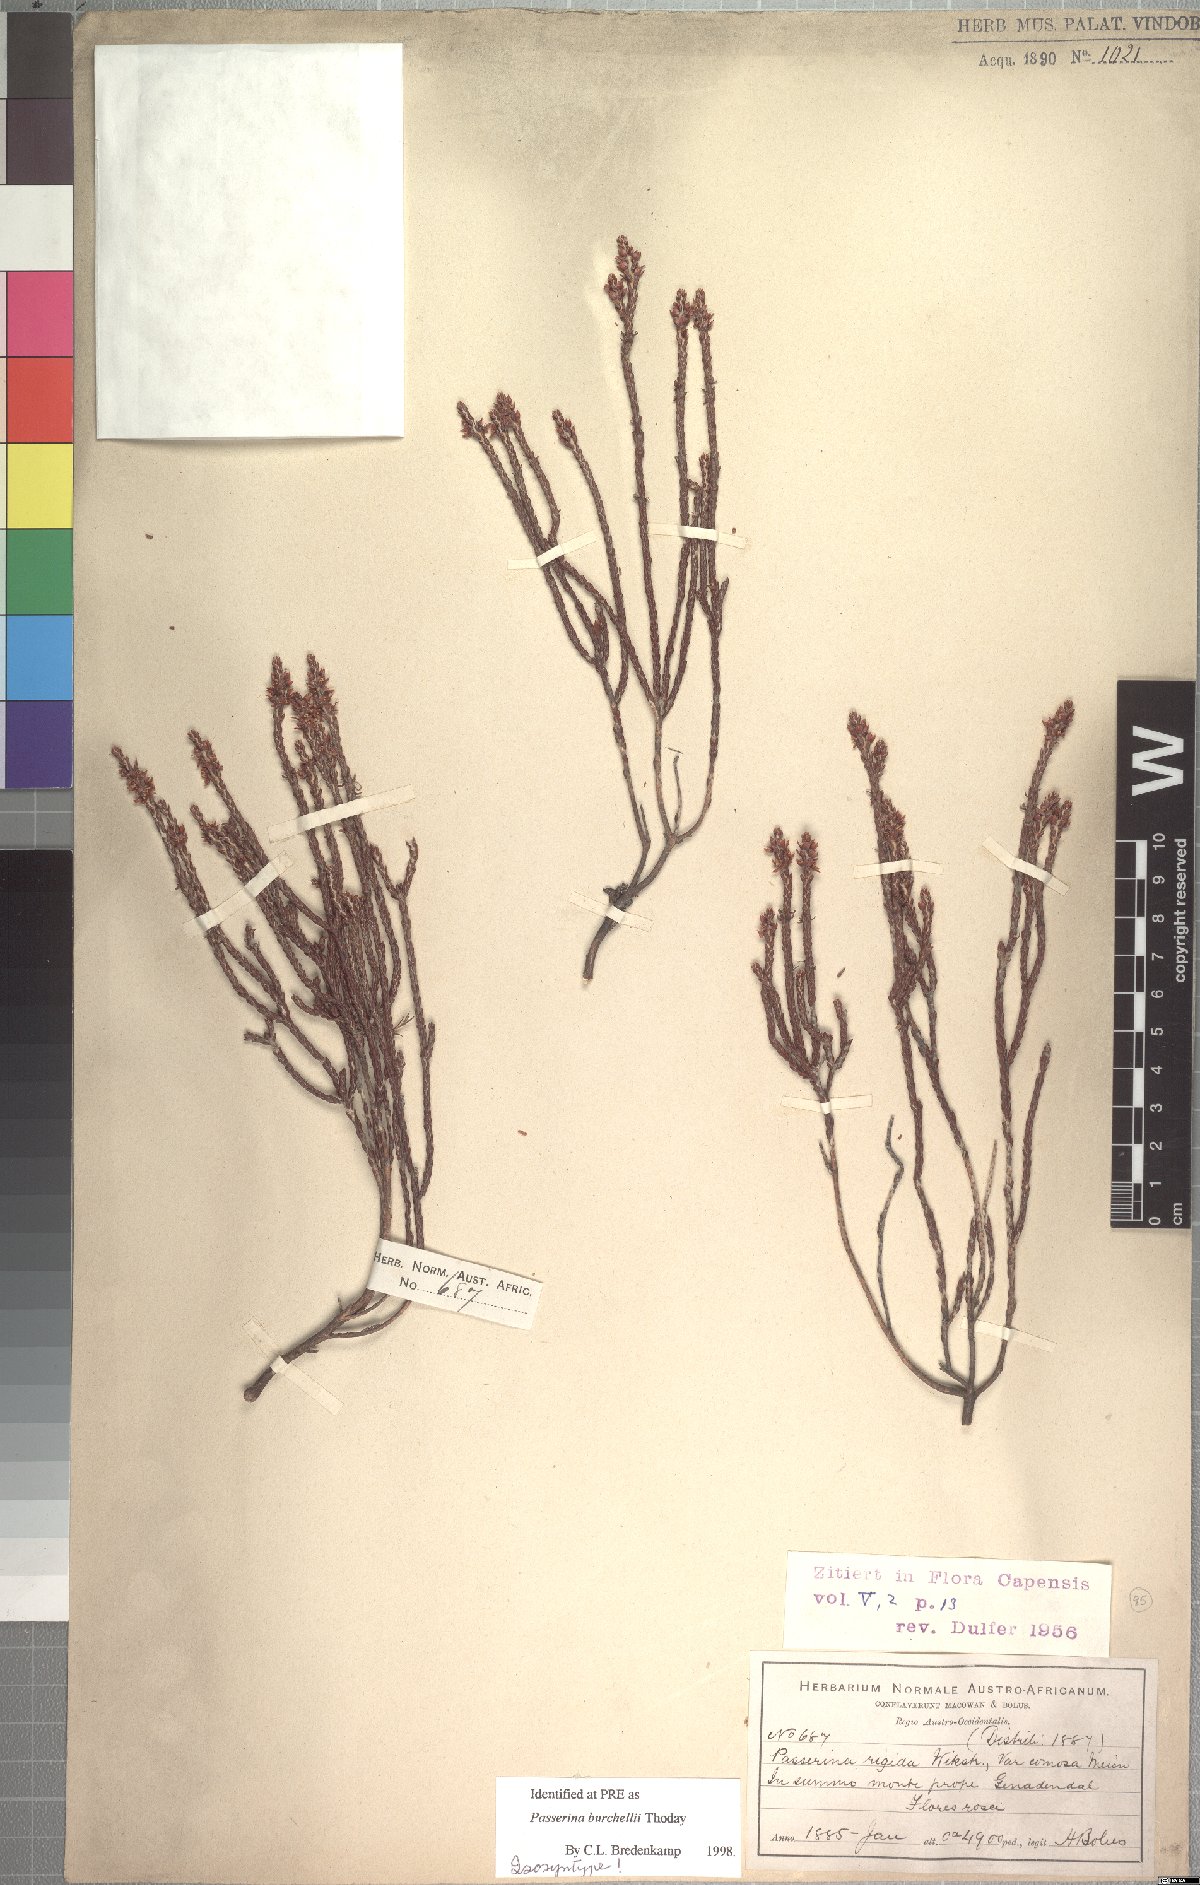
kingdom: Plantae
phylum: Tracheophyta
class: Magnoliopsida
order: Malvales
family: Thymelaeaceae
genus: Passerina
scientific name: Passerina burchellii
